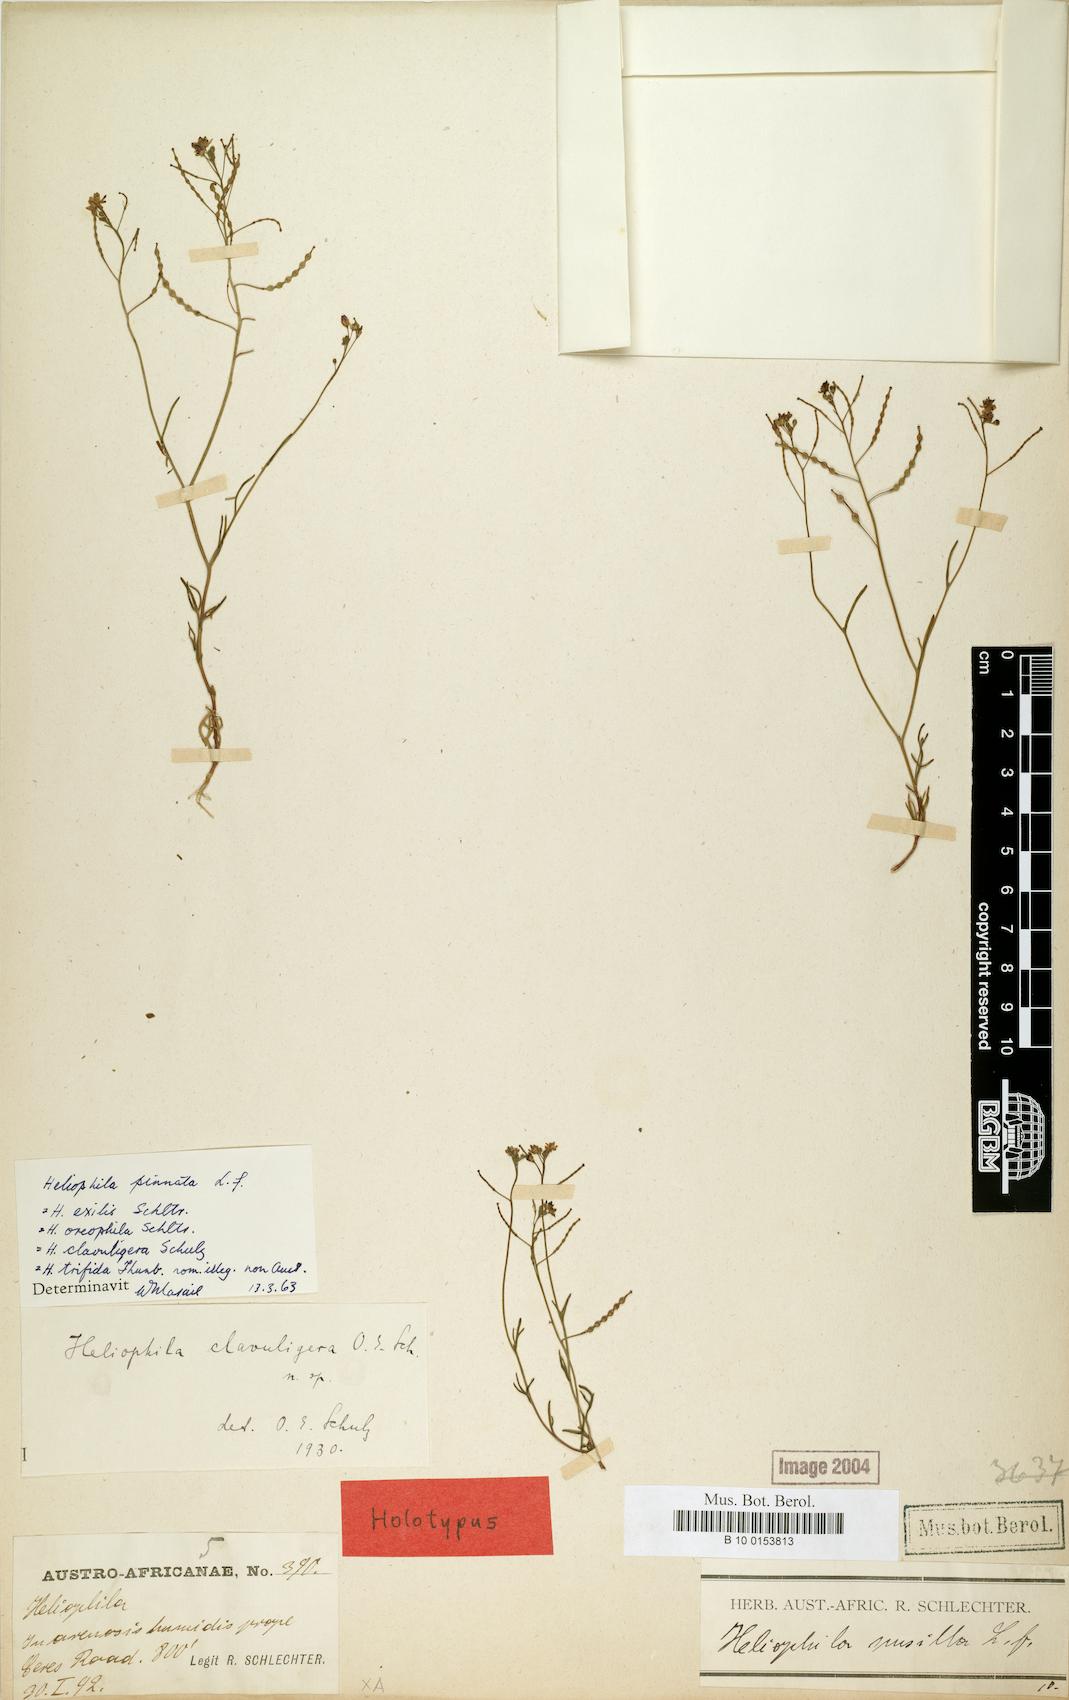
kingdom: Plantae
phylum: Tracheophyta
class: Magnoliopsida
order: Brassicales
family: Brassicaceae
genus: Heliophila
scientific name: Heliophila pinnata
